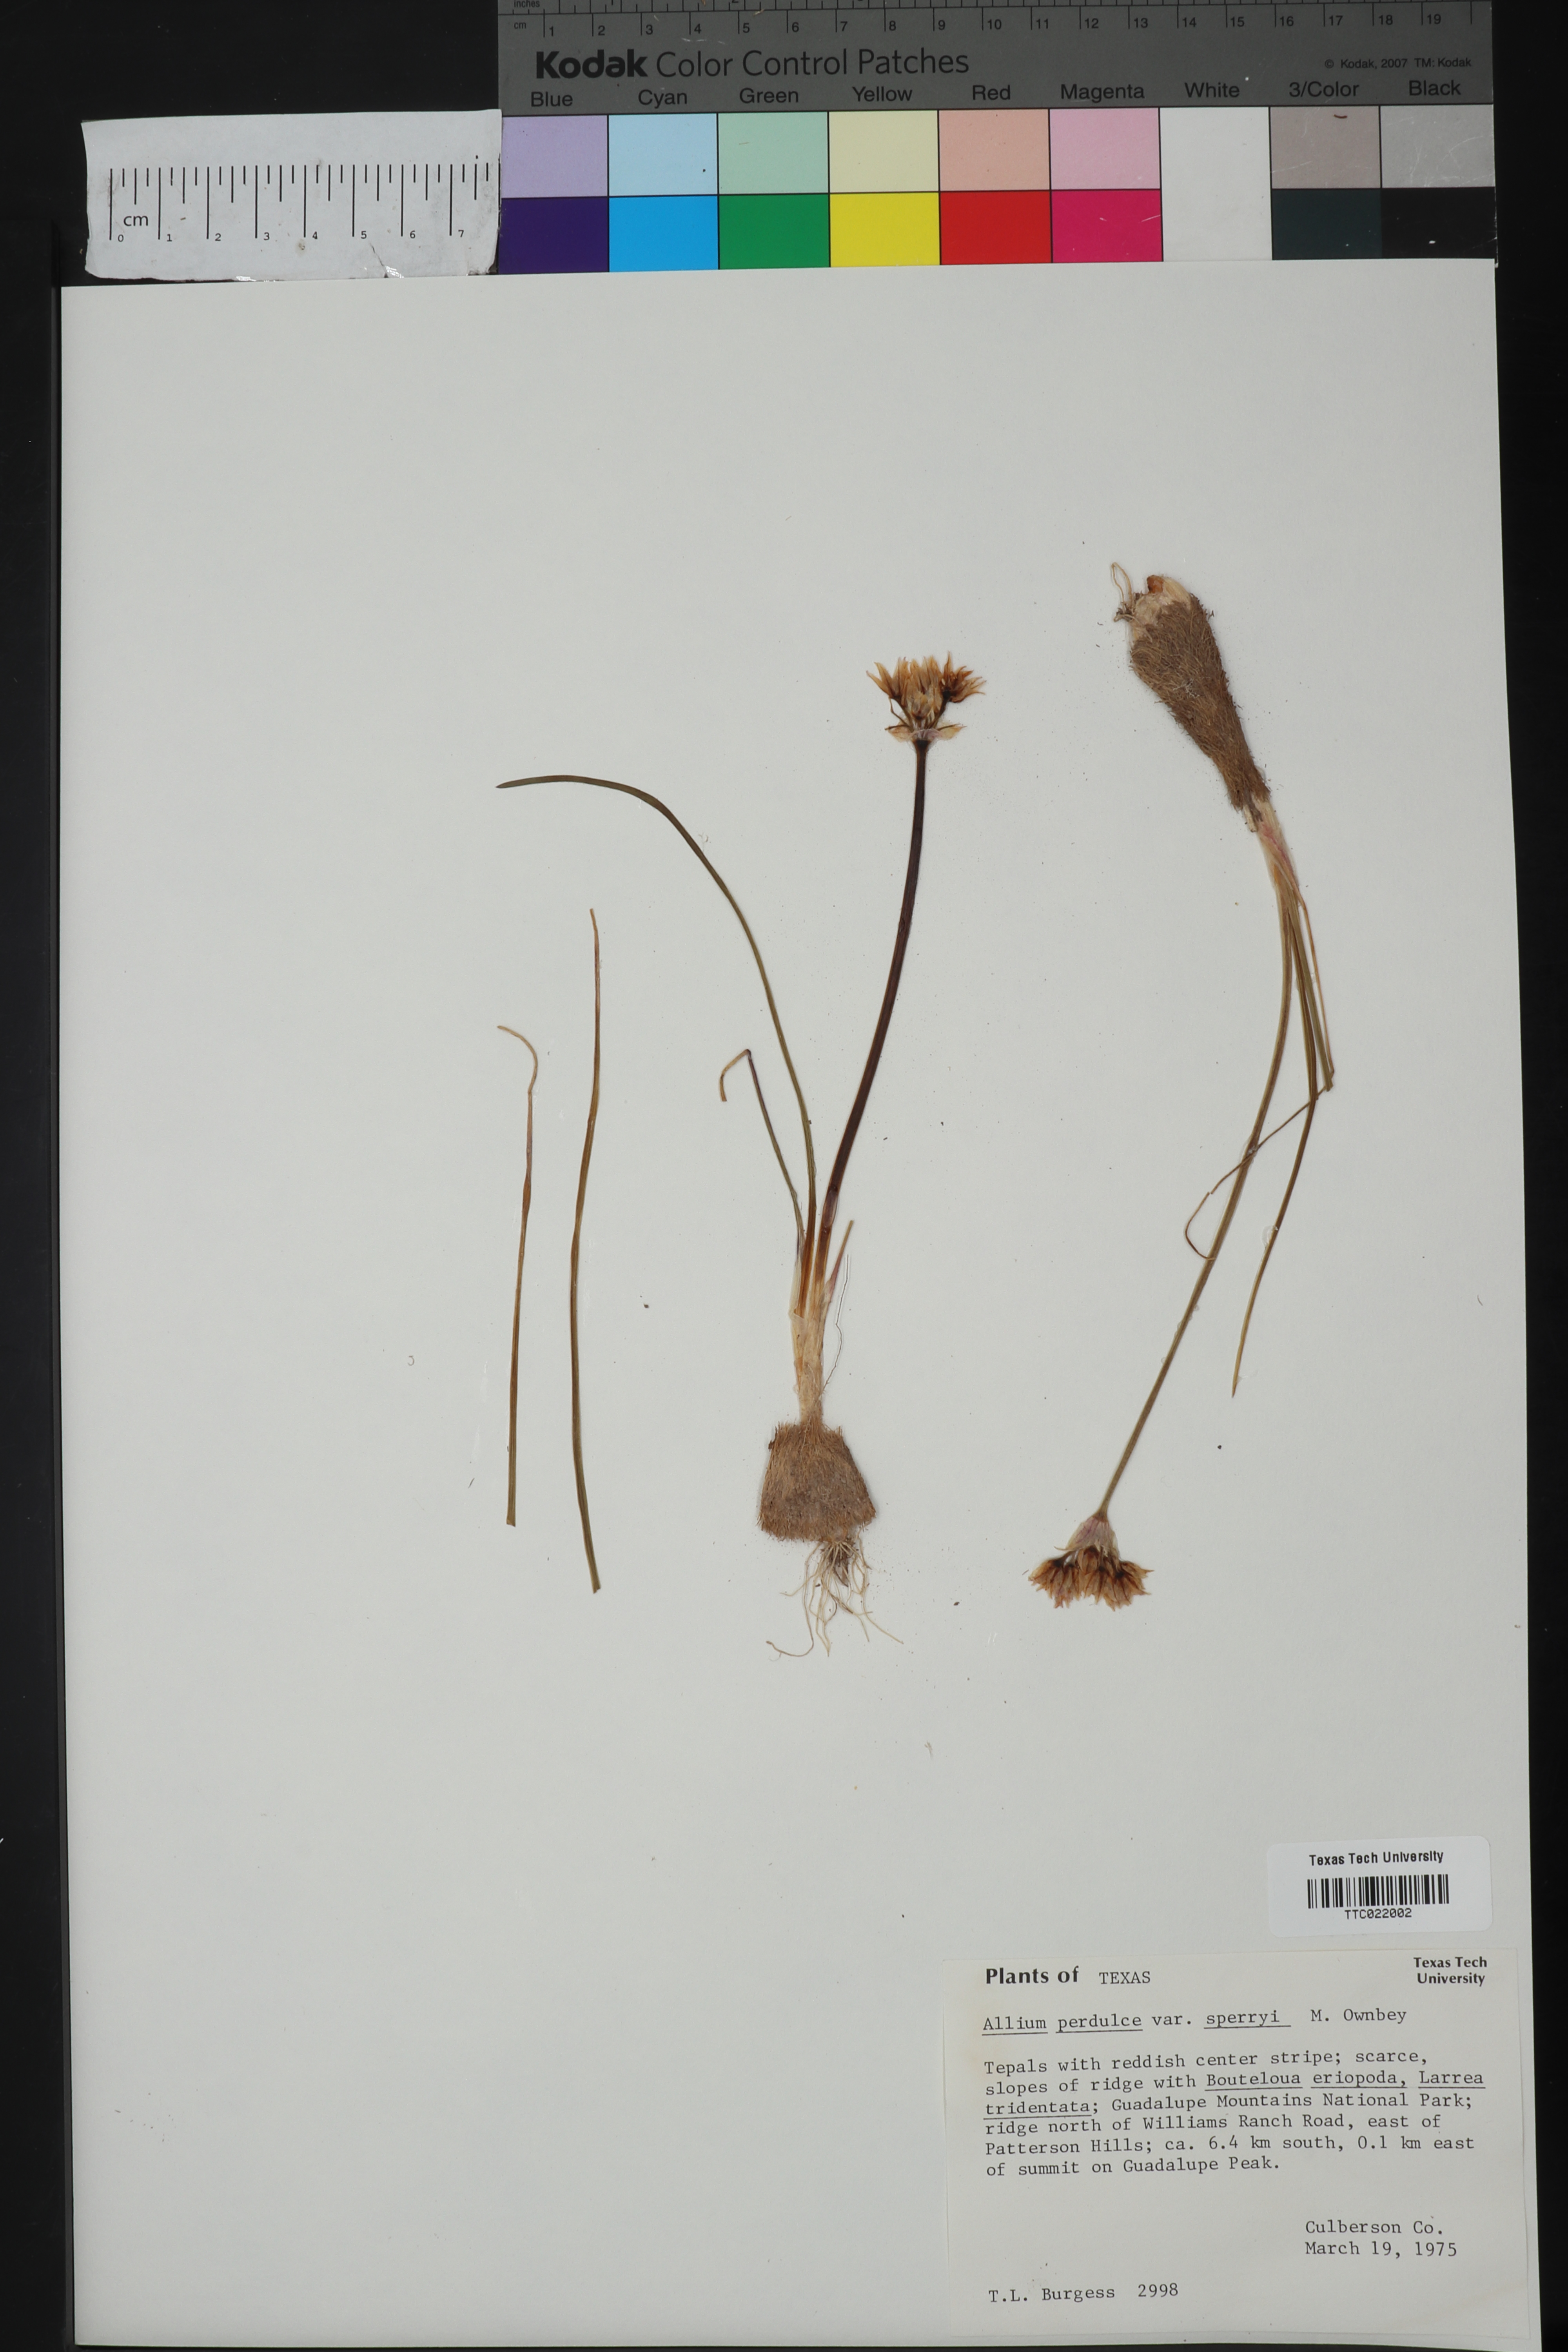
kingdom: Plantae
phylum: Tracheophyta
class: Liliopsida
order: Asparagales
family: Amaryllidaceae
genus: Allium
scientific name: Allium perdulce
